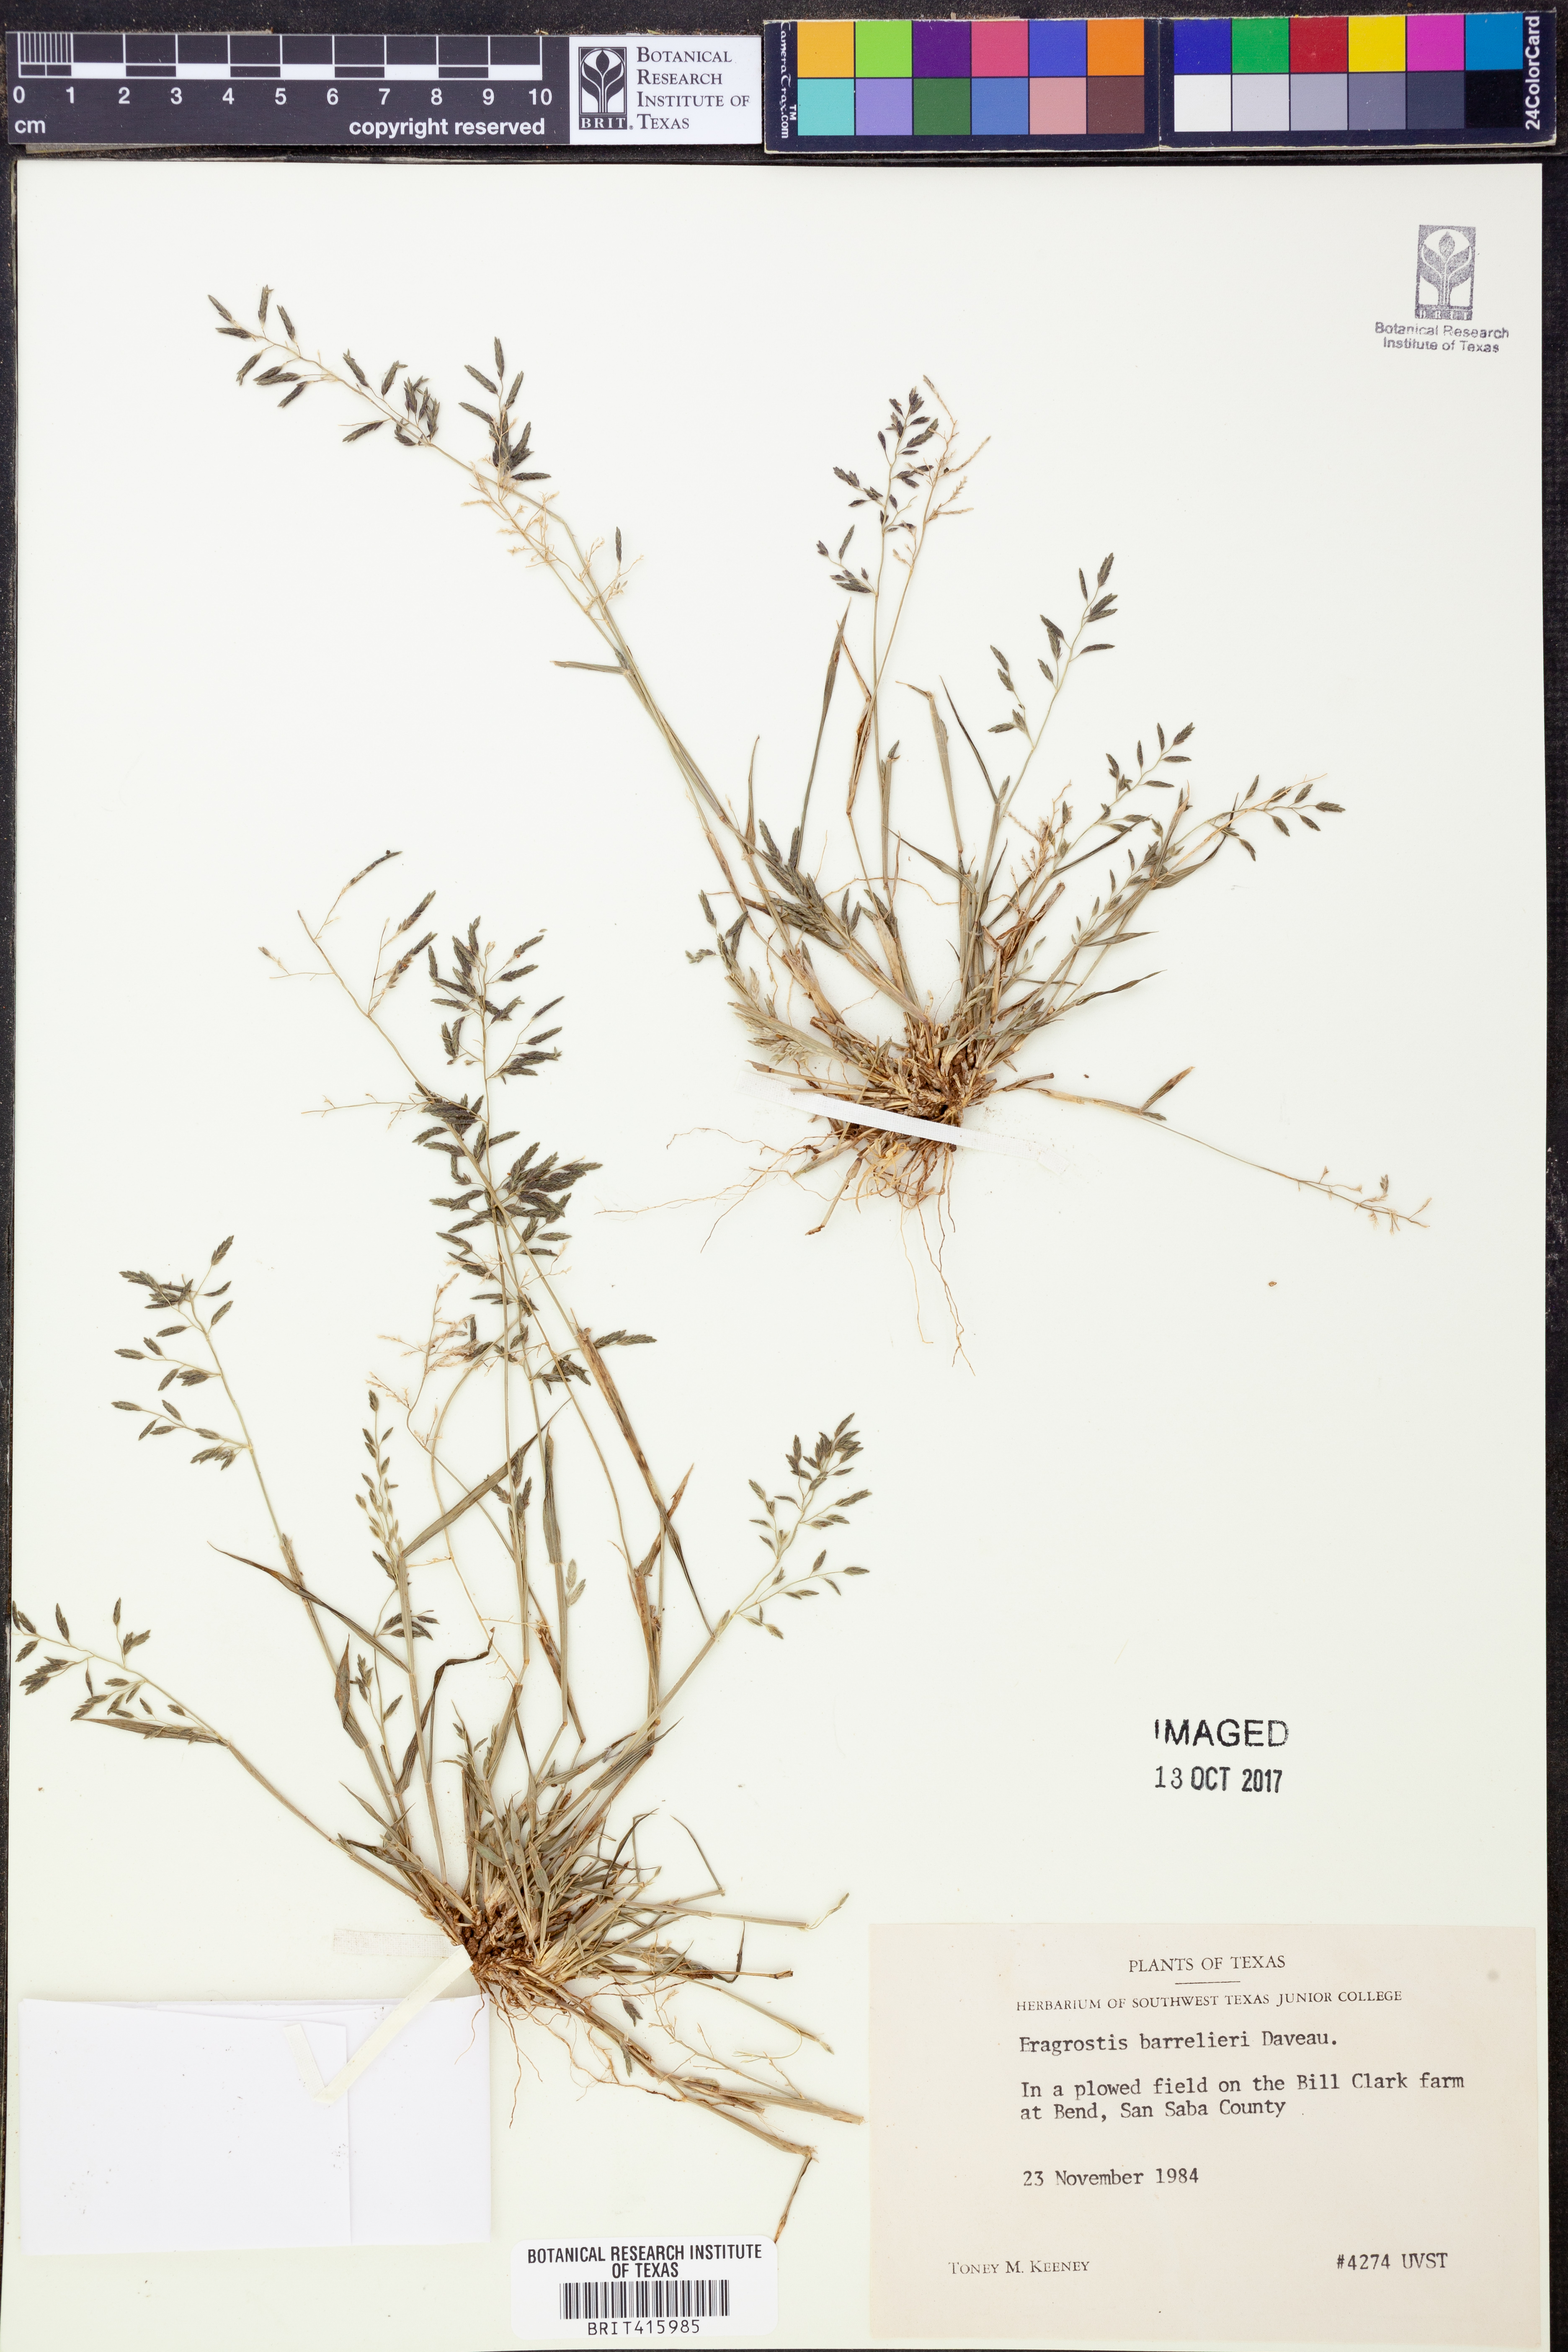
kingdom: Plantae
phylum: Tracheophyta
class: Liliopsida
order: Poales
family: Poaceae
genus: Eragrostis
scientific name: Eragrostis barrelieri
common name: Mediterranean lovegrass
